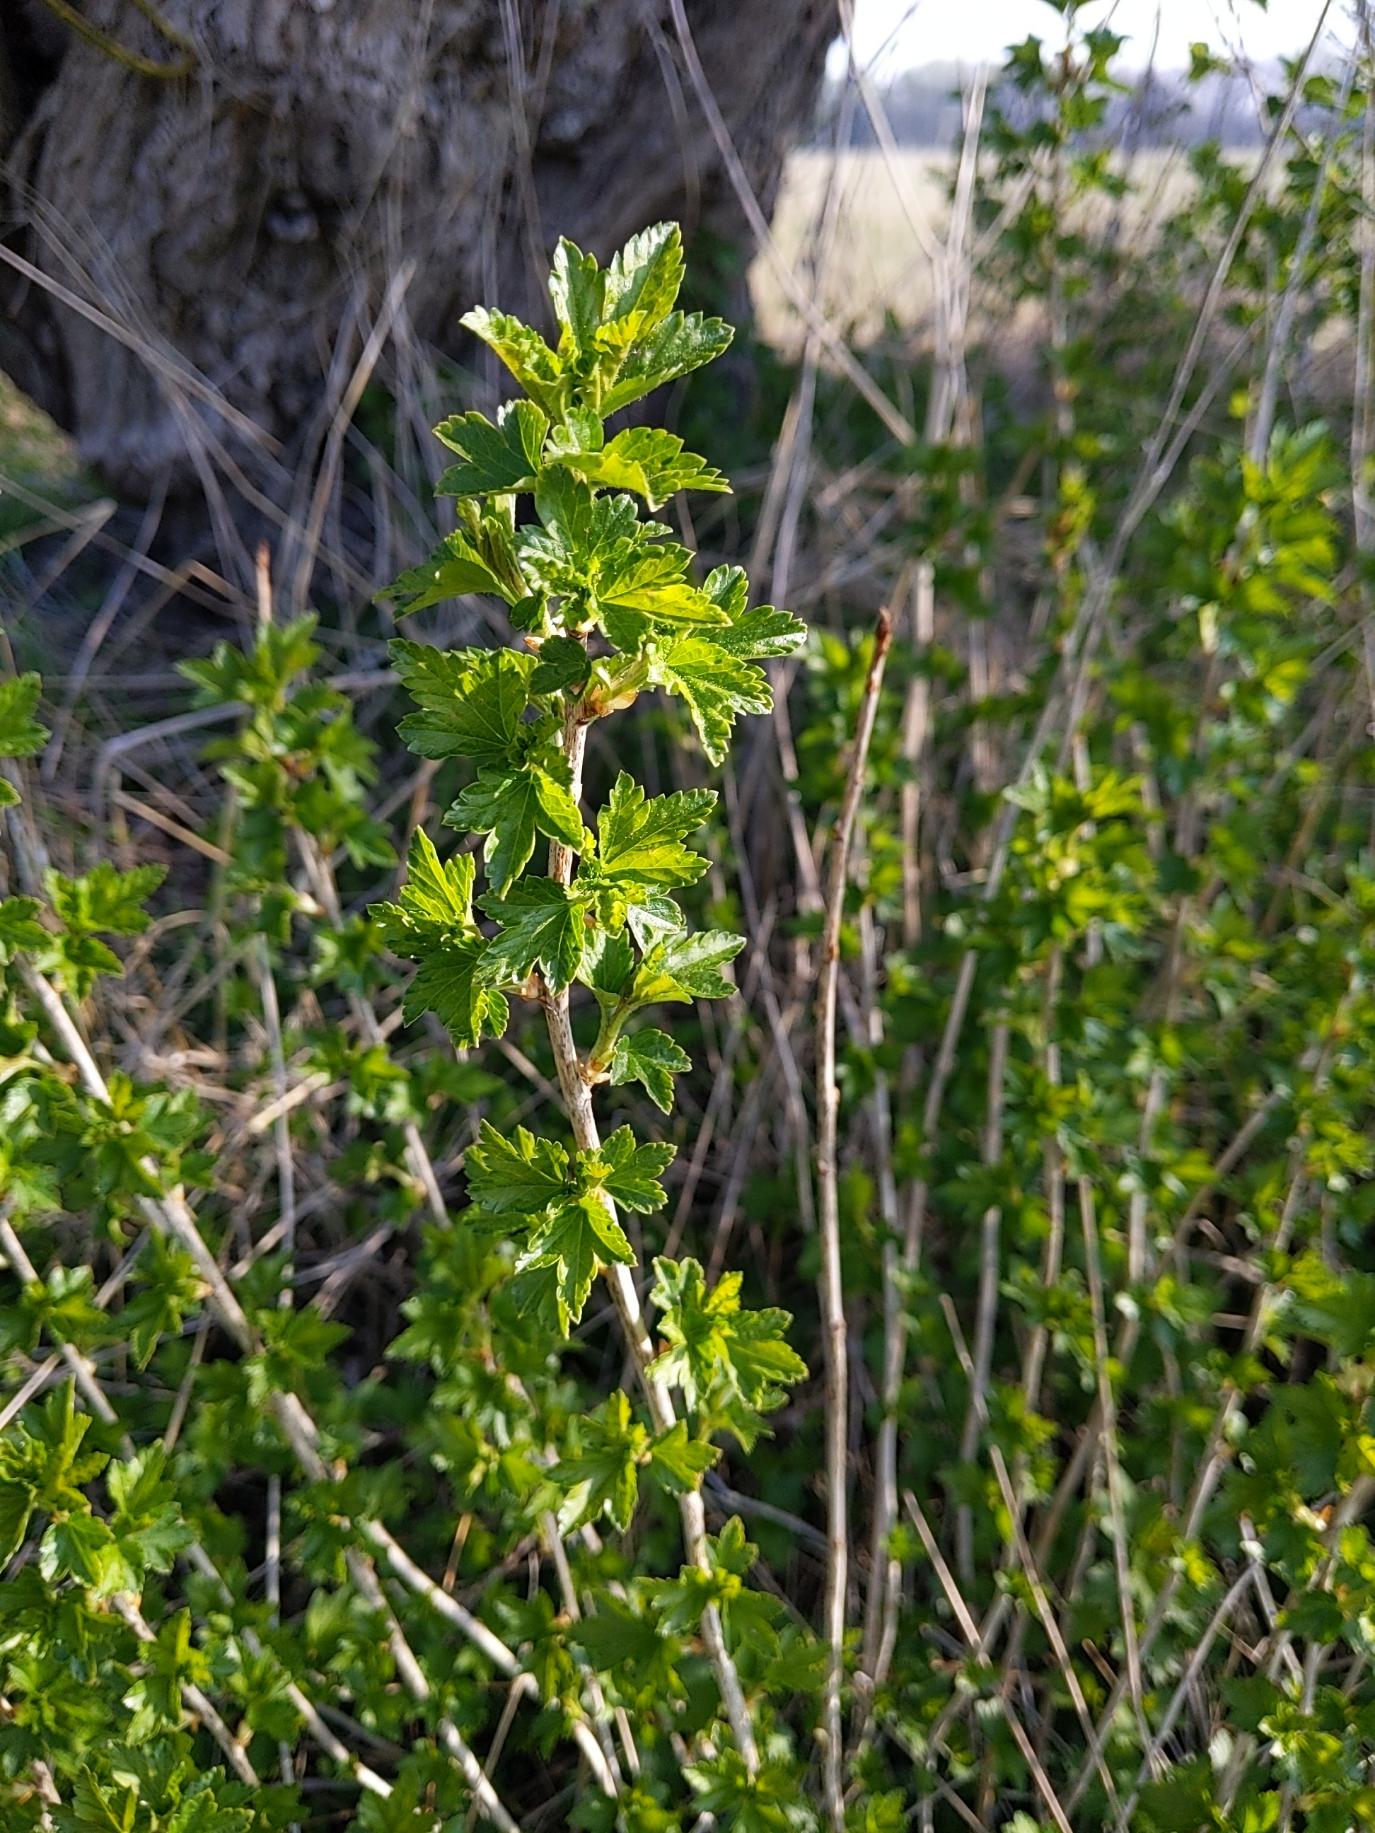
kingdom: Plantae
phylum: Tracheophyta
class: Magnoliopsida
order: Saxifragales
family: Grossulariaceae
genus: Ribes
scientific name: Ribes
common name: Ribsslægten
